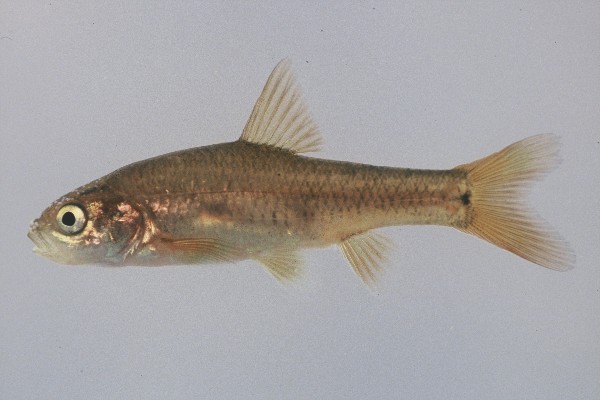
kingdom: Animalia
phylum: Chordata
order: Cypriniformes
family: Cyprinidae
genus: Enteromius
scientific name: Enteromius gurneyi
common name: Redtail barb
